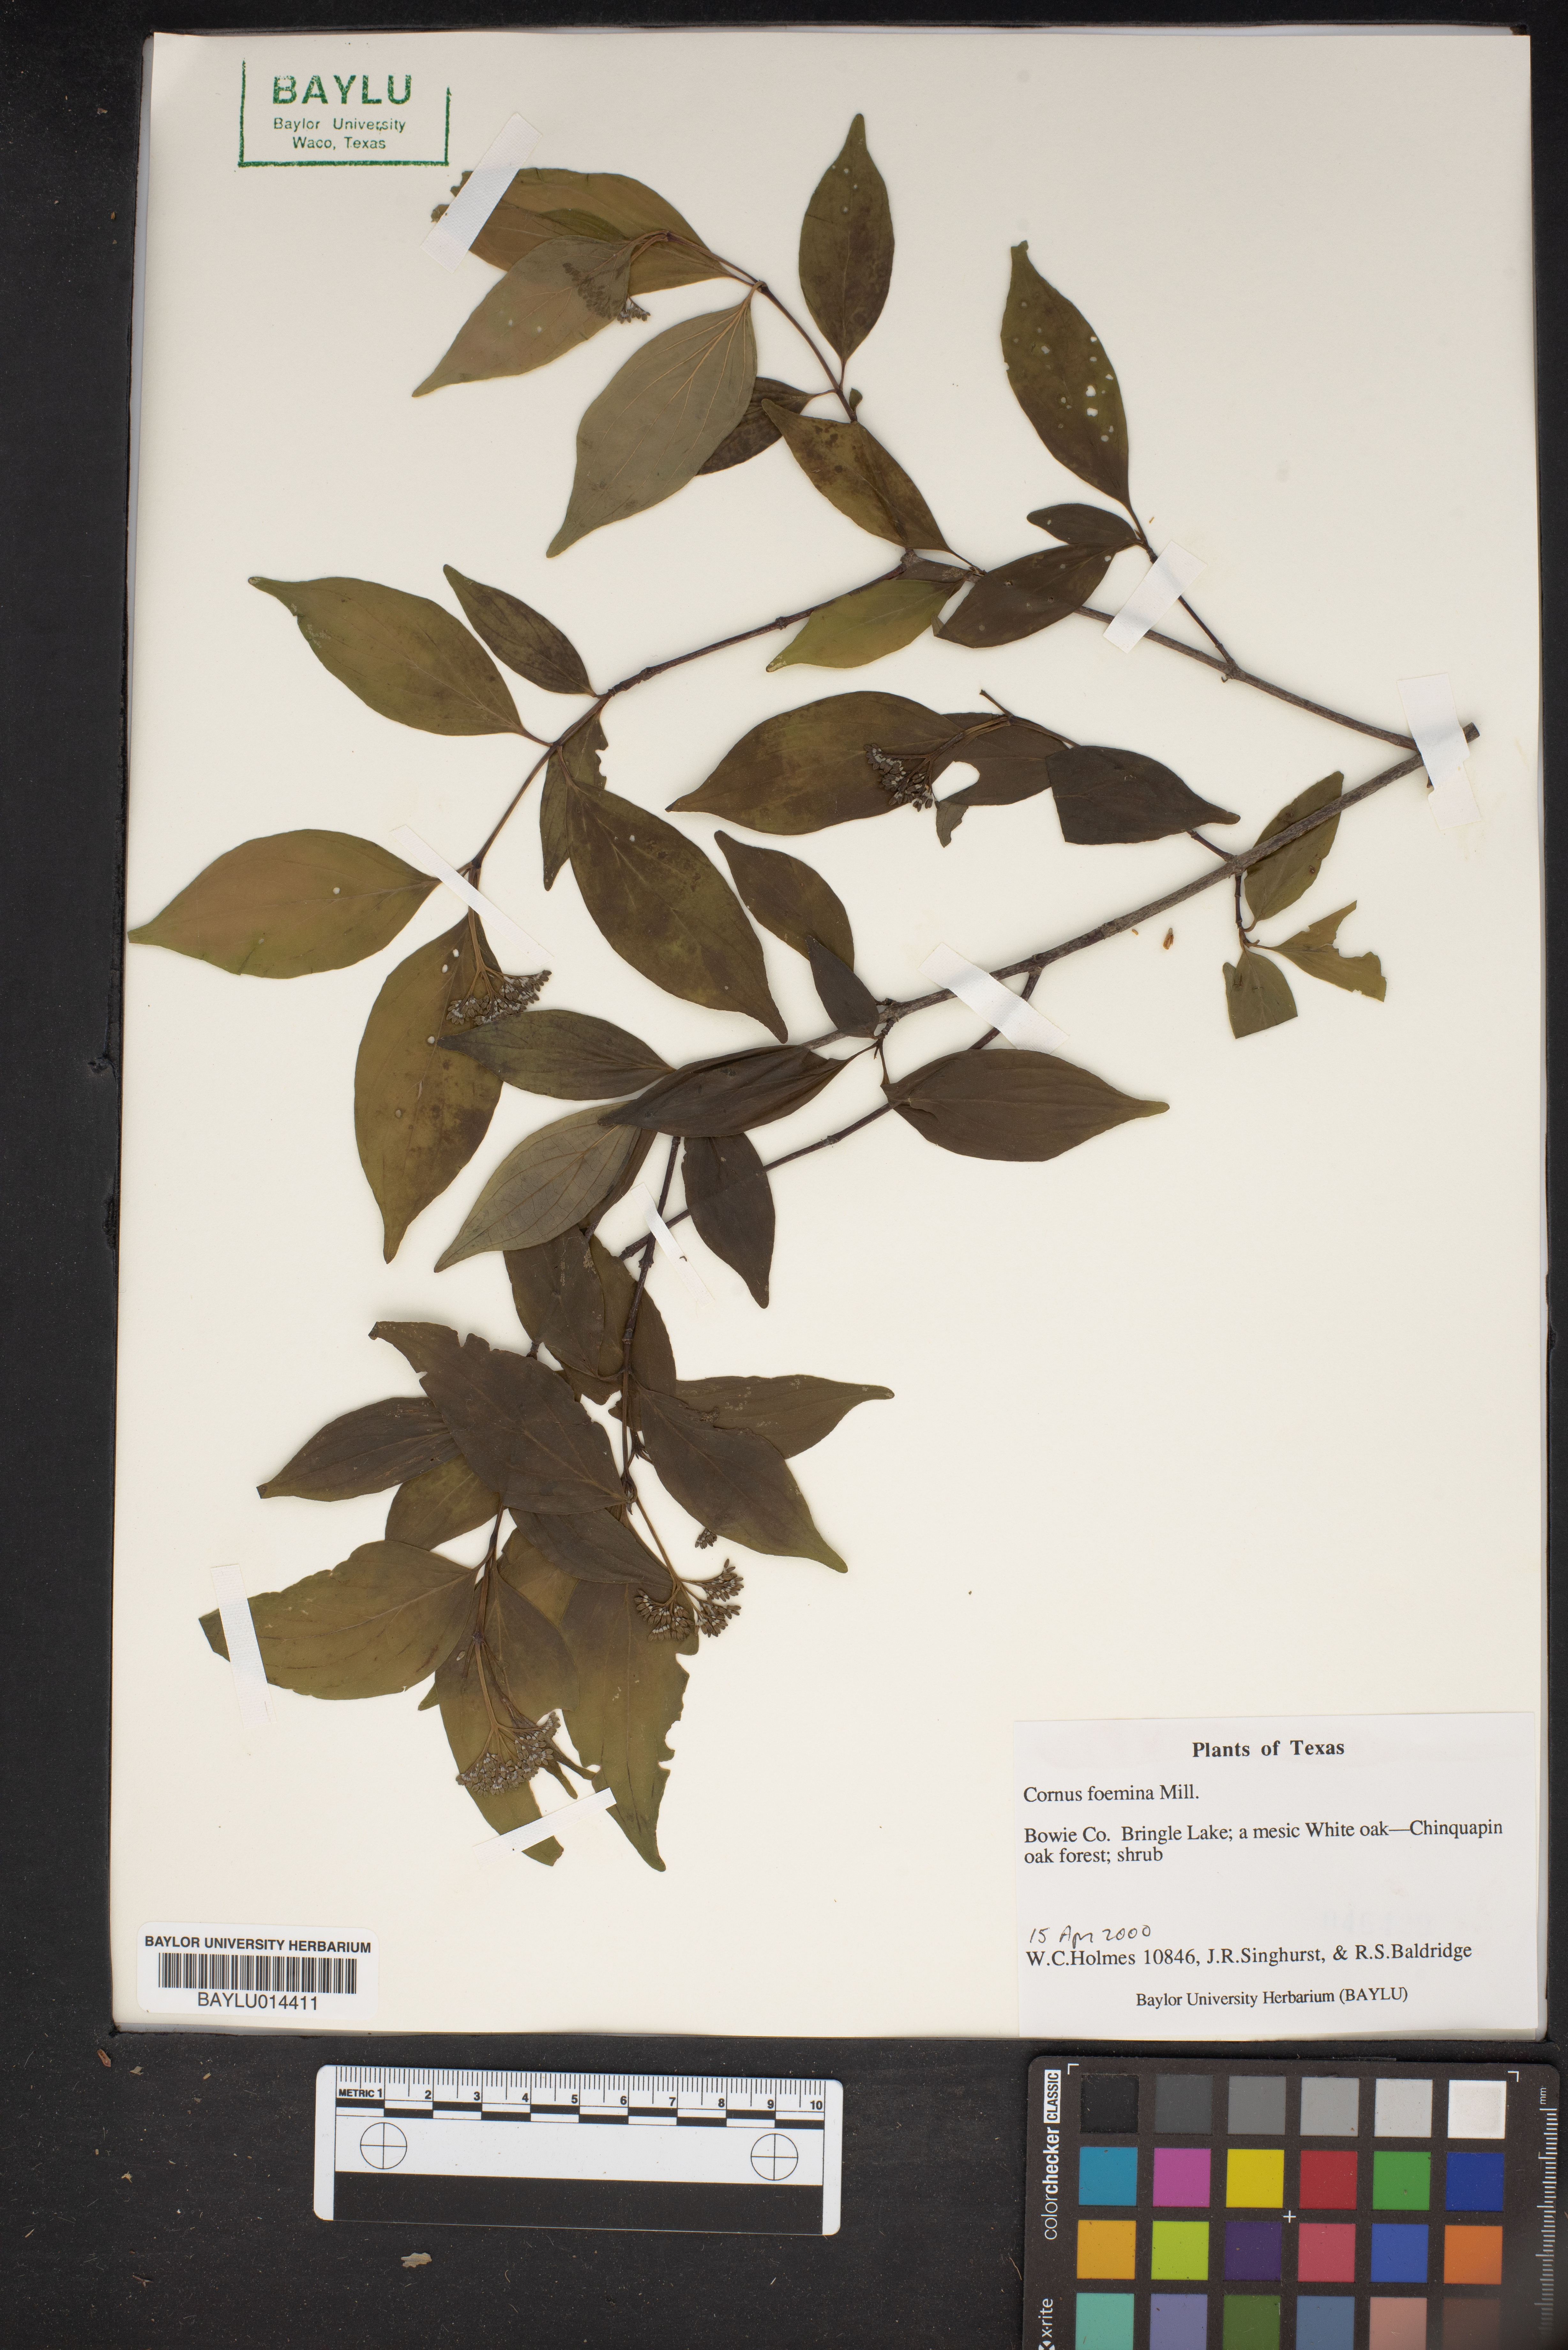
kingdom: Plantae
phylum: Tracheophyta
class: Magnoliopsida
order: Cornales
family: Cornaceae
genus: Cornus
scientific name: Cornus foemina
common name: Swamp dogwood
